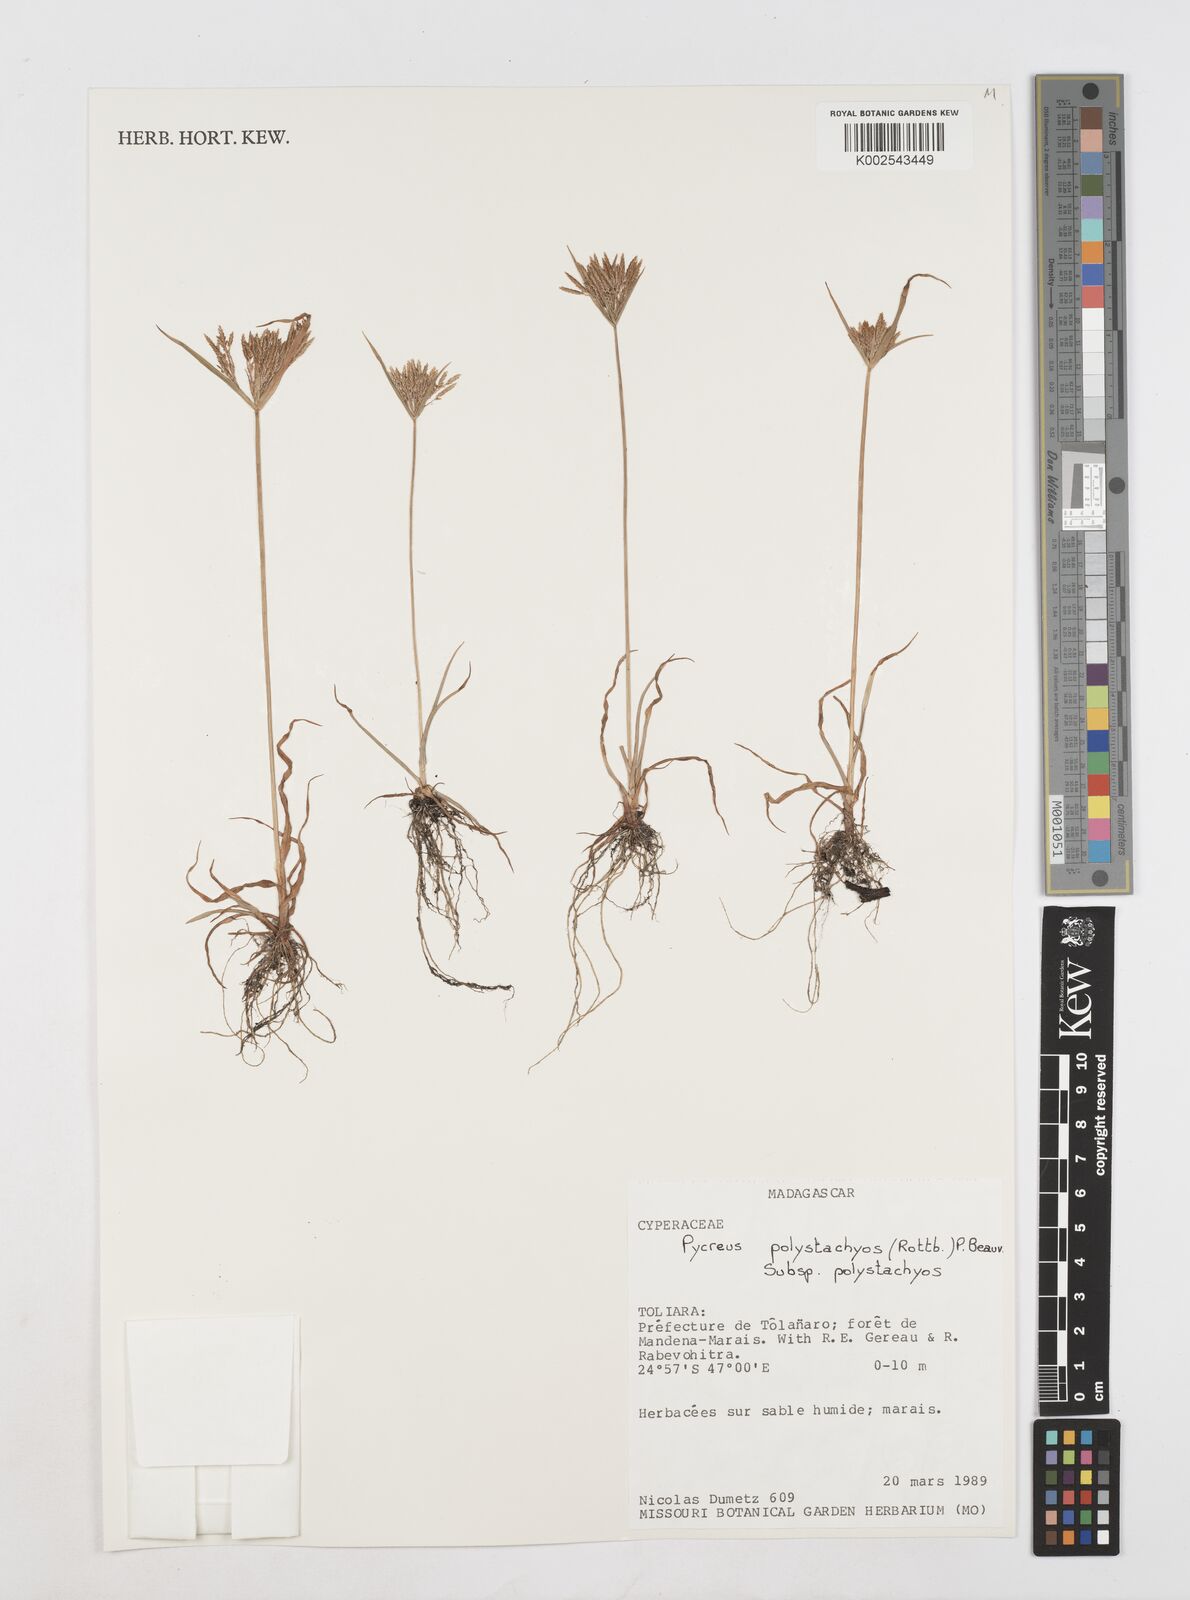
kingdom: Plantae
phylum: Tracheophyta
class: Liliopsida
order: Poales
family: Cyperaceae
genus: Cyperus
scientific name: Cyperus polystachyos
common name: Bunchy flat sedge
